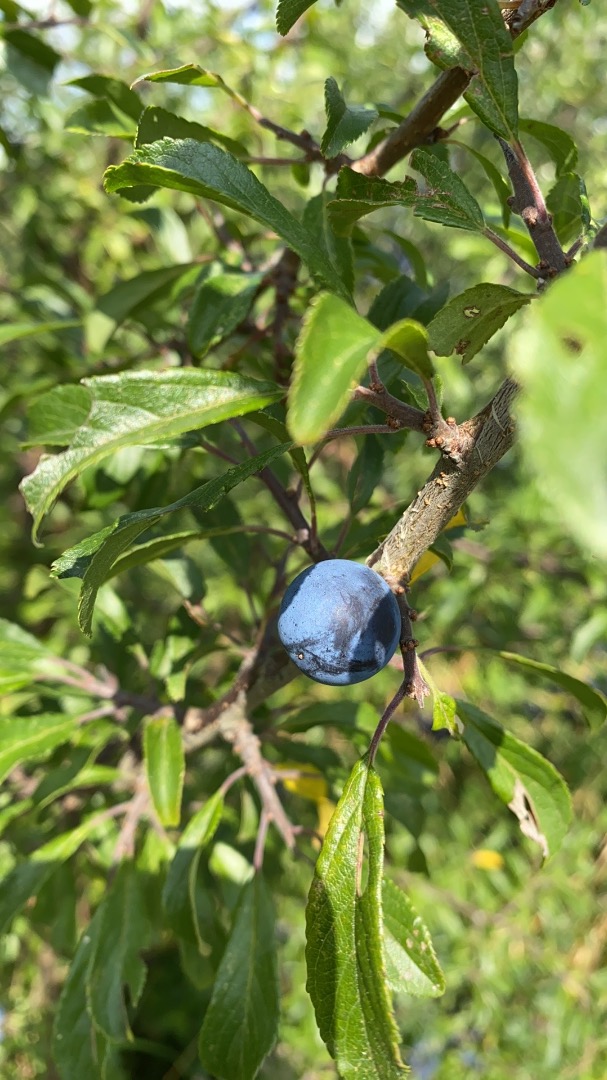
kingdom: Plantae
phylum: Tracheophyta
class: Magnoliopsida
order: Rosales
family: Rosaceae
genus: Prunus
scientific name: Prunus spinosa
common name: Slåen
